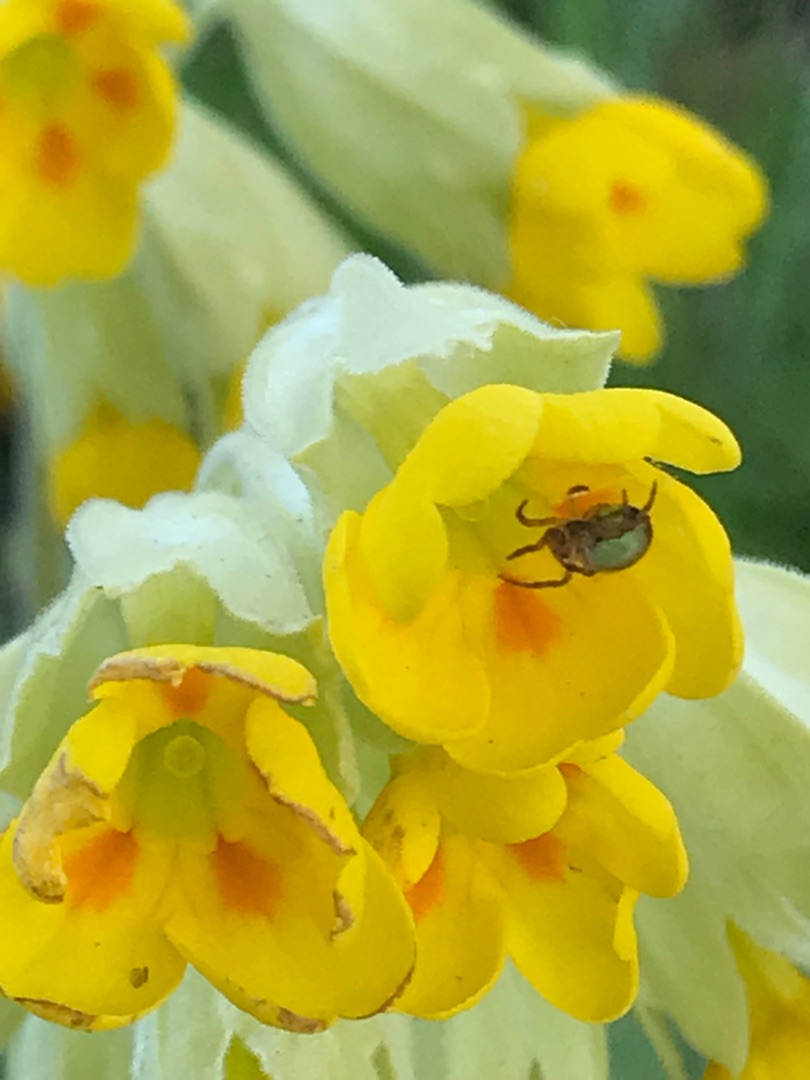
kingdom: Plantae
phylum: Tracheophyta
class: Magnoliopsida
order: Ericales
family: Primulaceae
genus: Primula
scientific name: Primula veris
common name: Hulkravet kodriver
